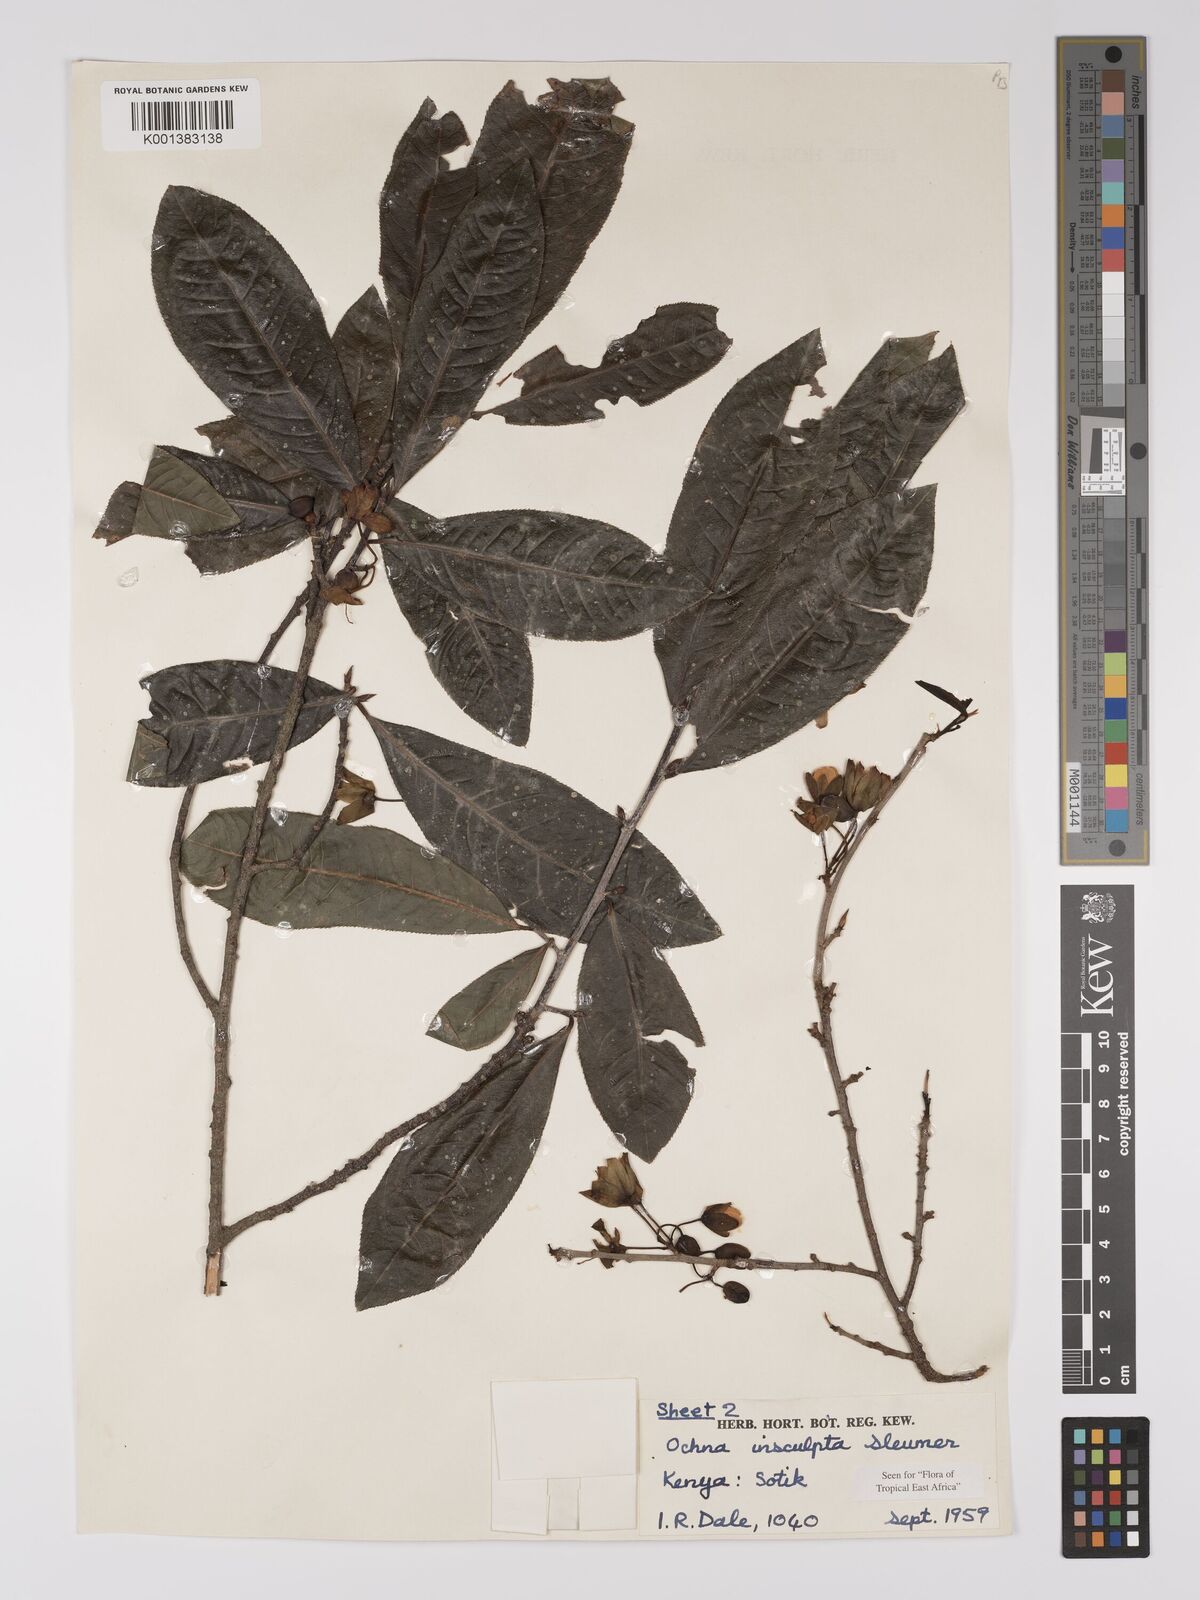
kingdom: Plantae
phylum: Tracheophyta
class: Magnoliopsida
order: Malpighiales
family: Ochnaceae
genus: Ochna
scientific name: Ochna insculpta
